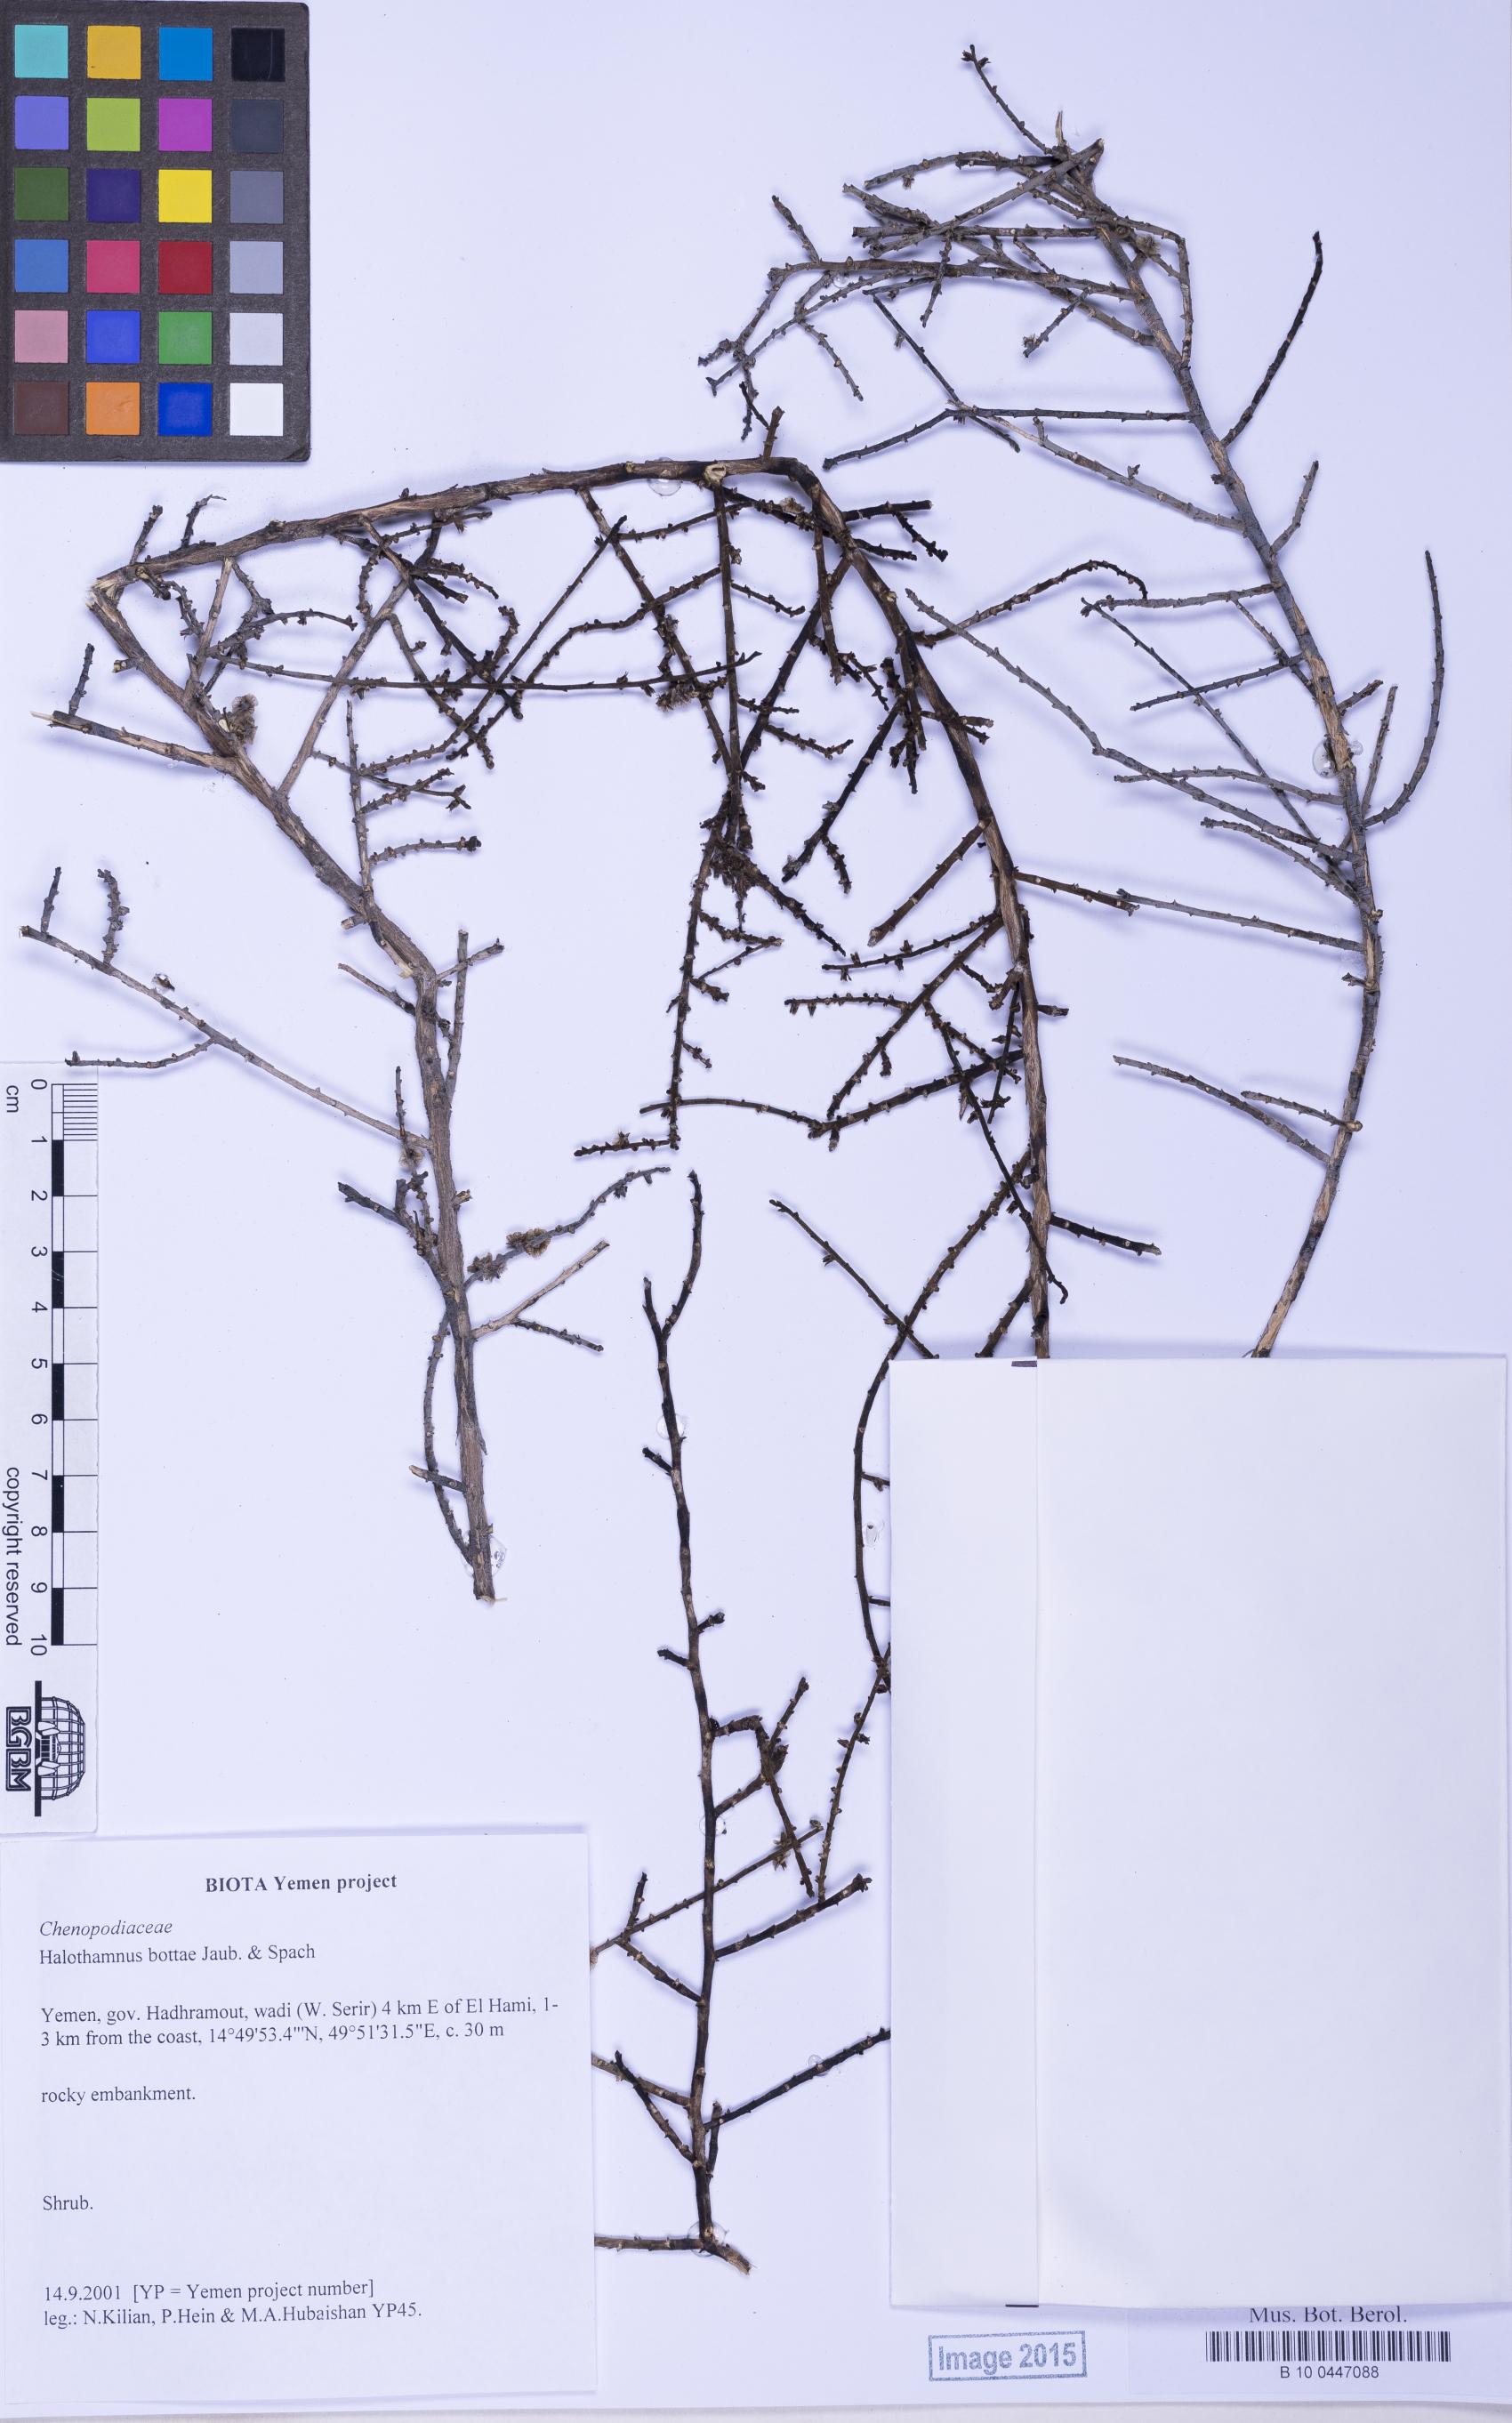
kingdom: Plantae
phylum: Tracheophyta
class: Magnoliopsida
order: Caryophyllales
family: Amaranthaceae
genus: Halothamnus
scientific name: Halothamnus bottae
